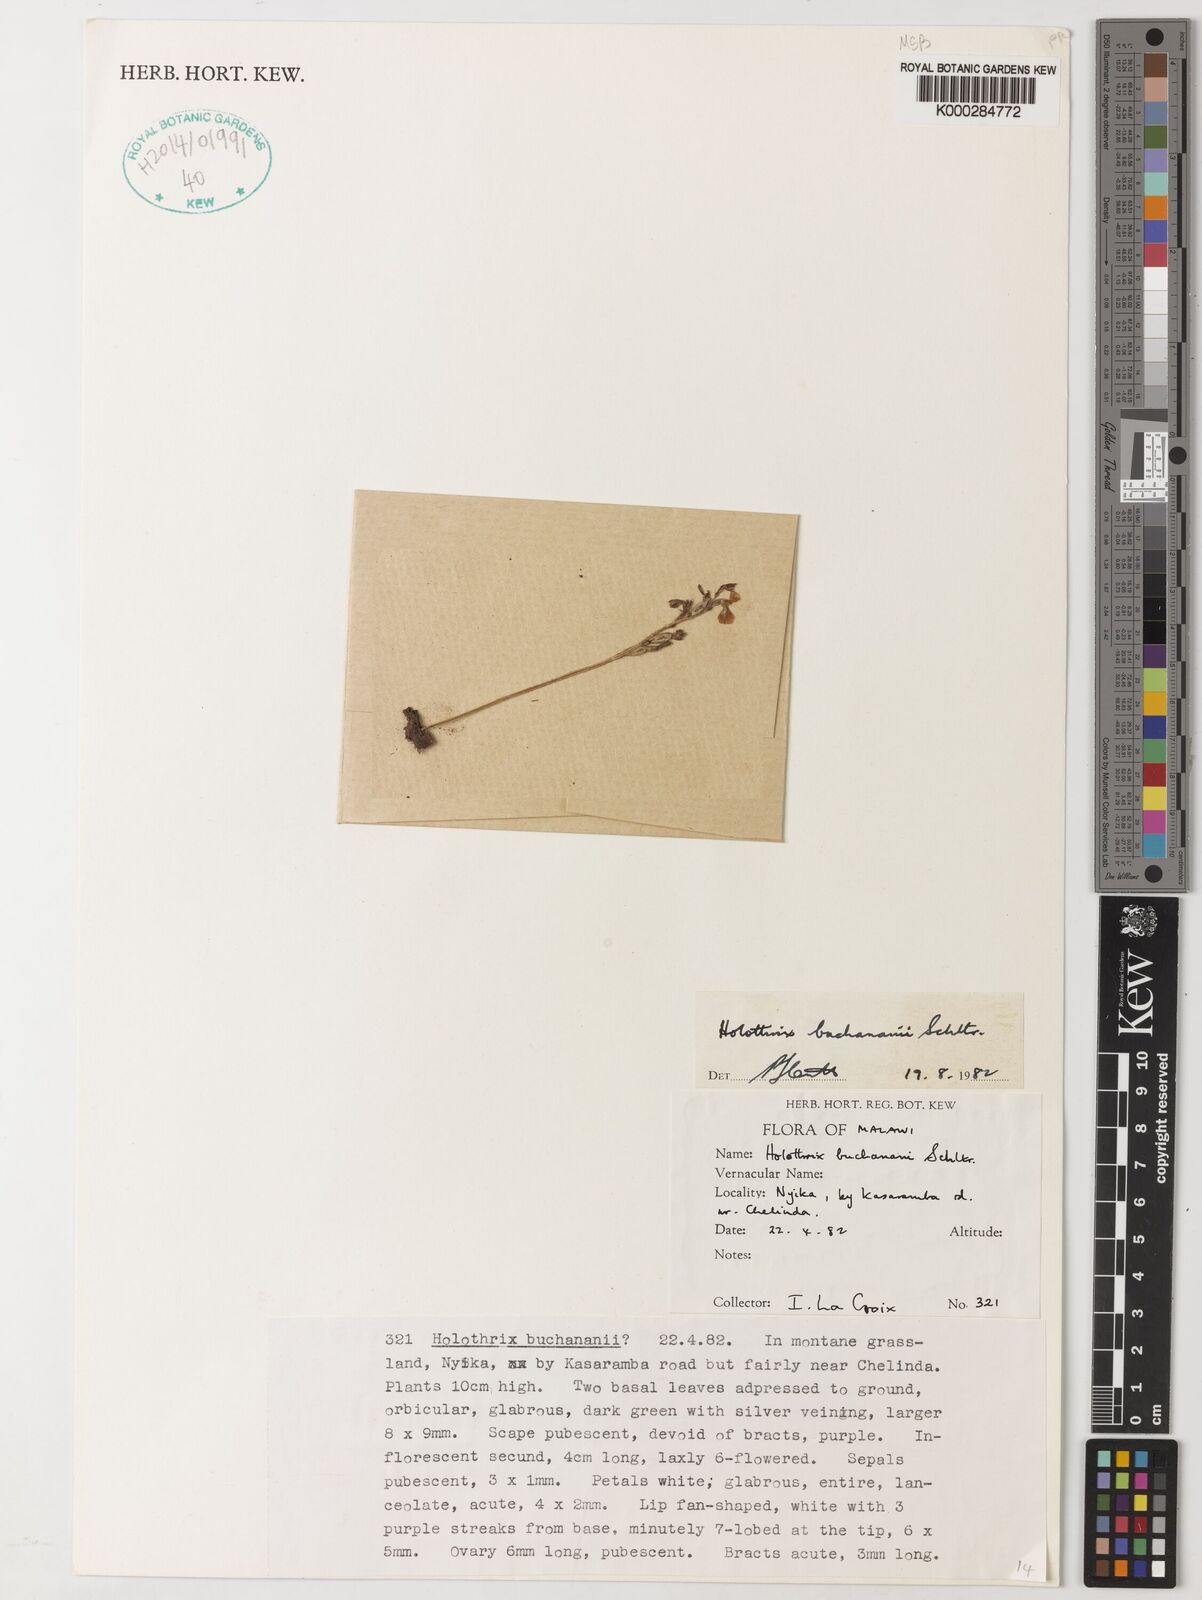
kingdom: Plantae
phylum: Tracheophyta
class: Liliopsida
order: Asparagales
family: Orchidaceae
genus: Holothrix
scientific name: Holothrix buchananii
